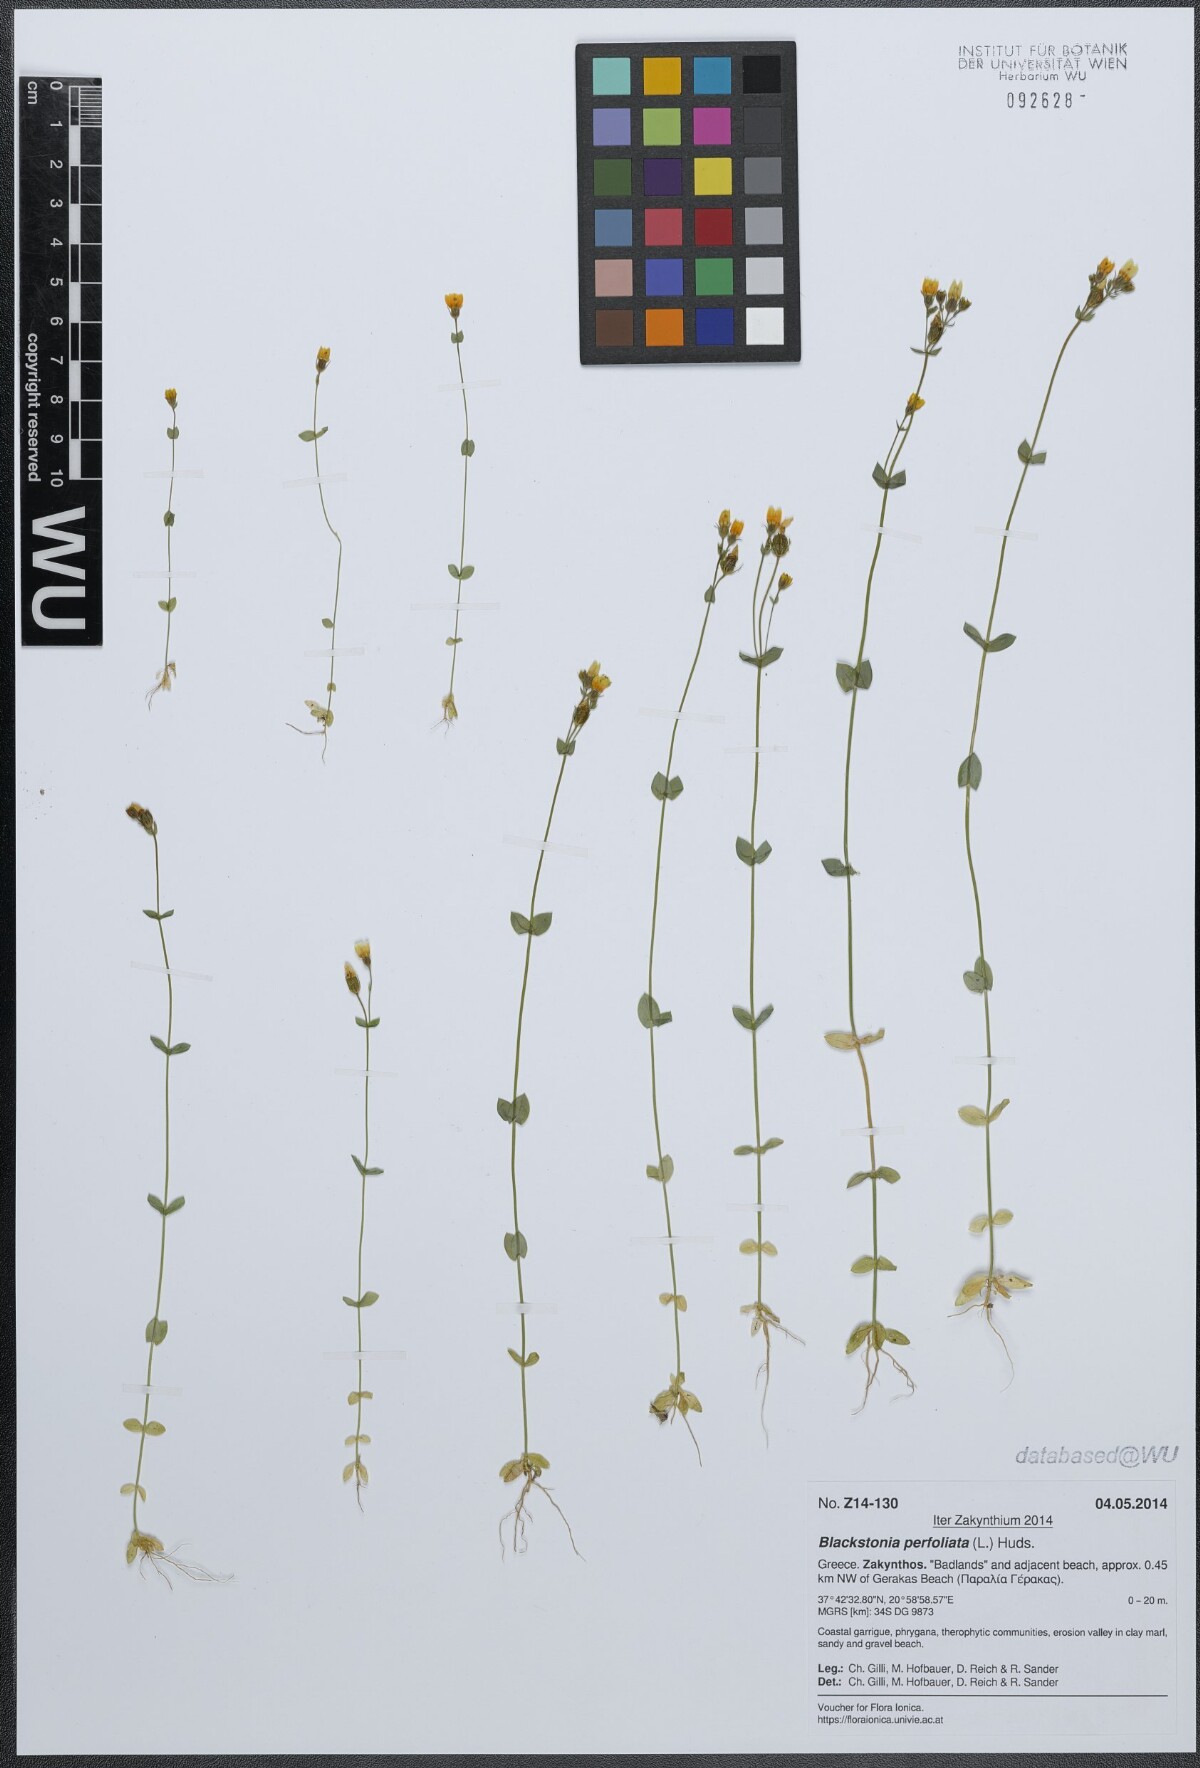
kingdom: Plantae
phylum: Tracheophyta
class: Magnoliopsida
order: Gentianales
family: Gentianaceae
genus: Blackstonia
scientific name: Blackstonia perfoliata
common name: Yellow-wort
